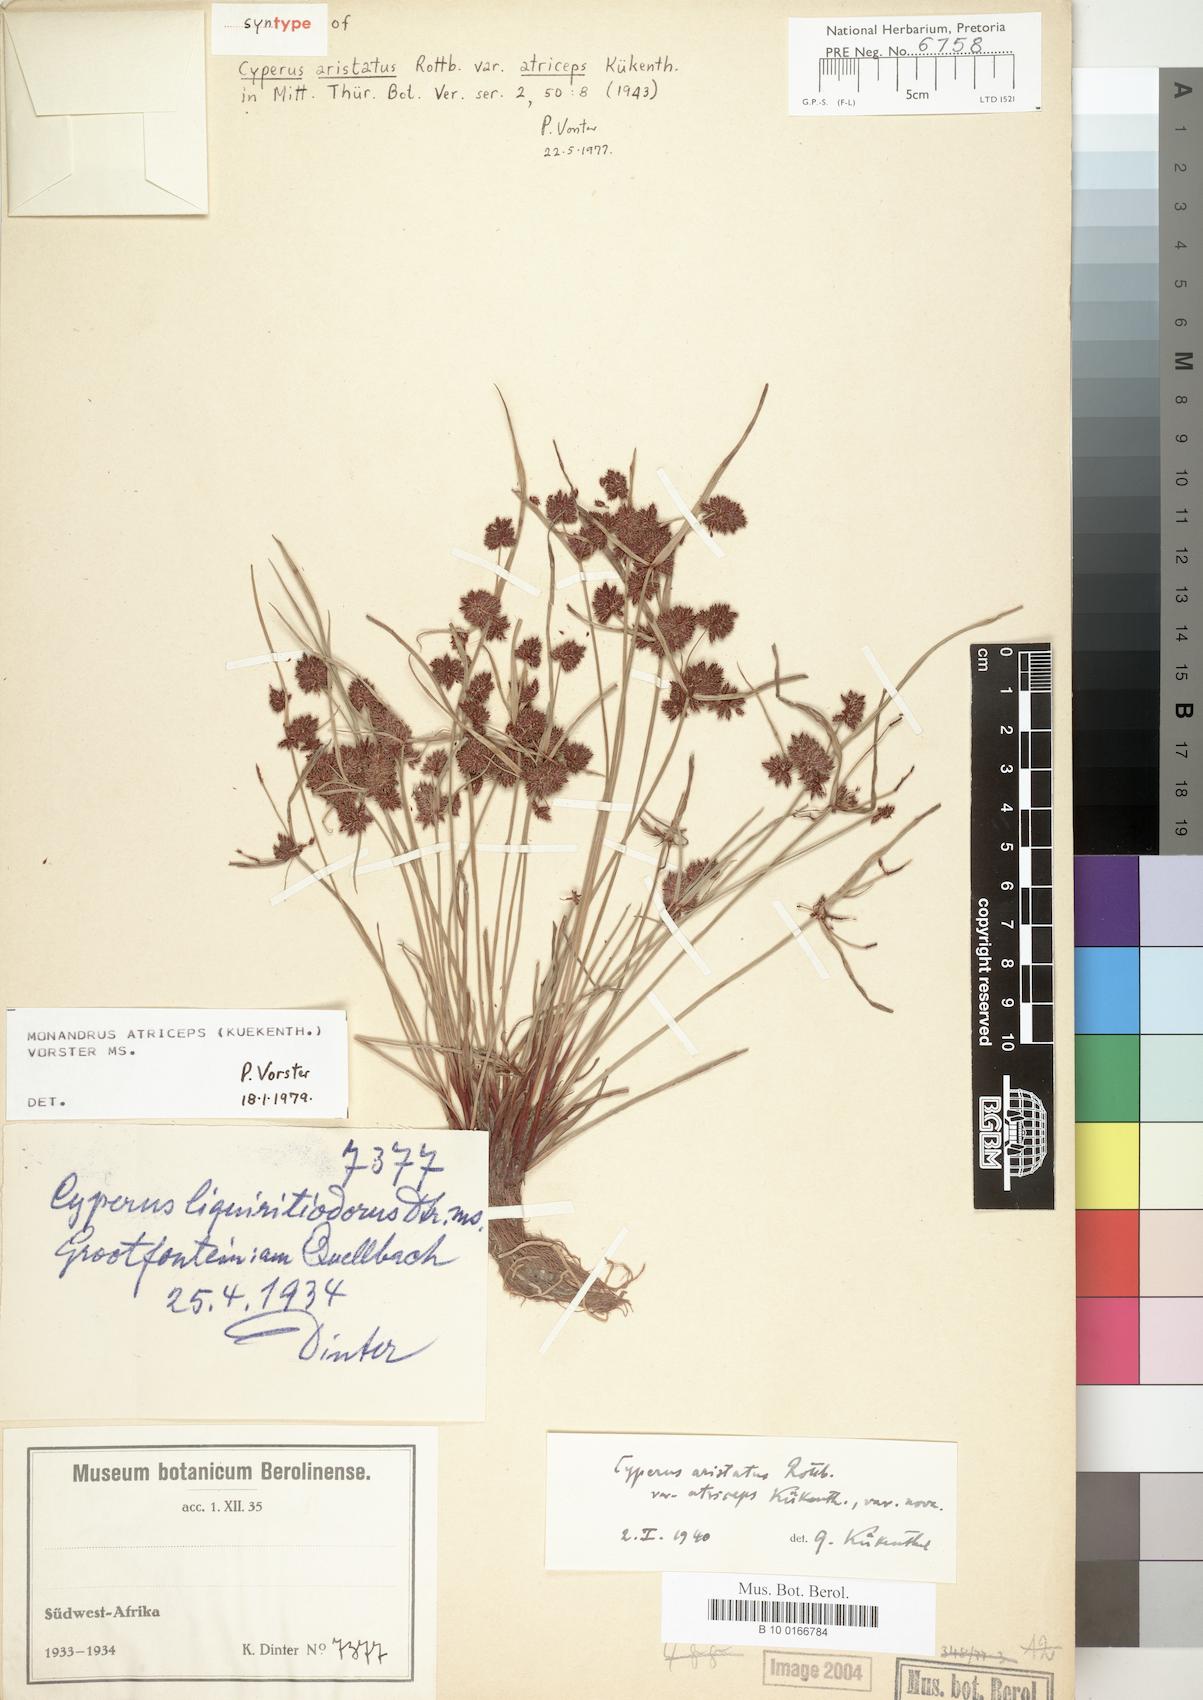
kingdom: Plantae
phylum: Tracheophyta
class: Liliopsida
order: Poales
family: Cyperaceae
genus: Cyperus
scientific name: Cyperus atriceps
